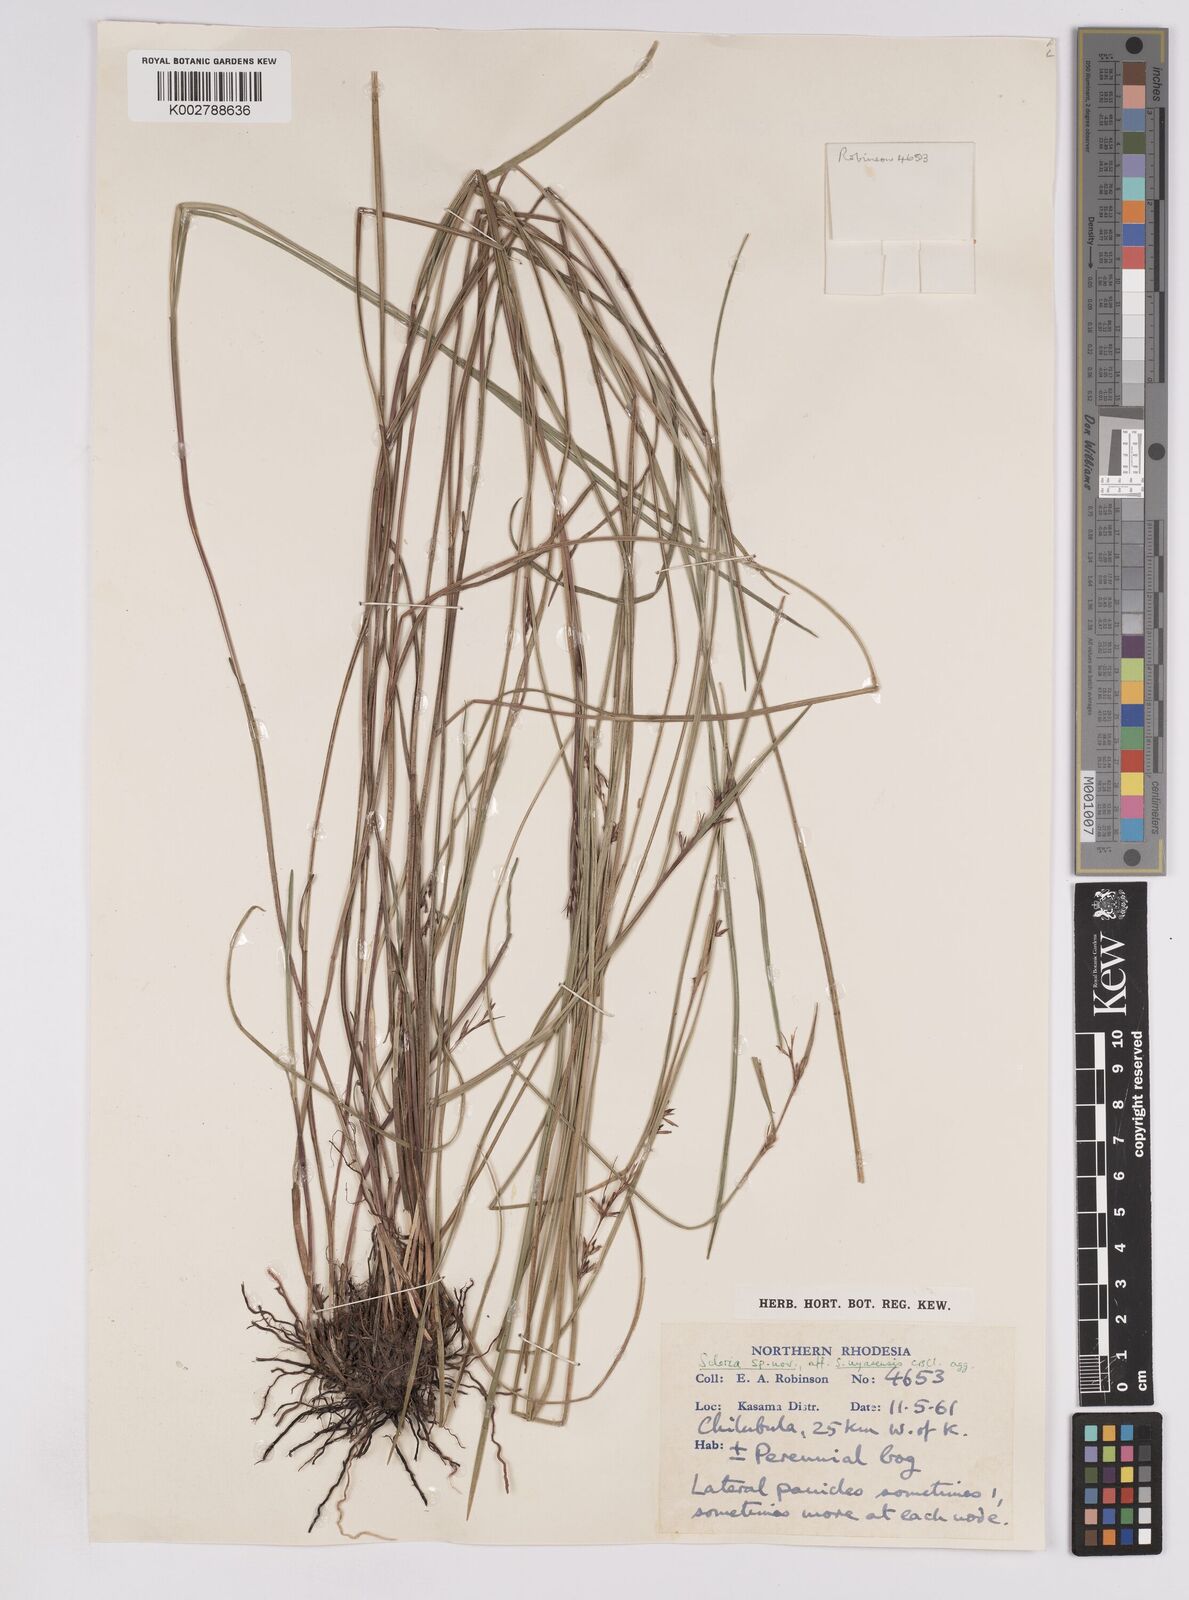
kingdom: Plantae
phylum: Tracheophyta
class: Liliopsida
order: Poales
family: Cyperaceae
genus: Scleria
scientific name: Scleria nyasensis
